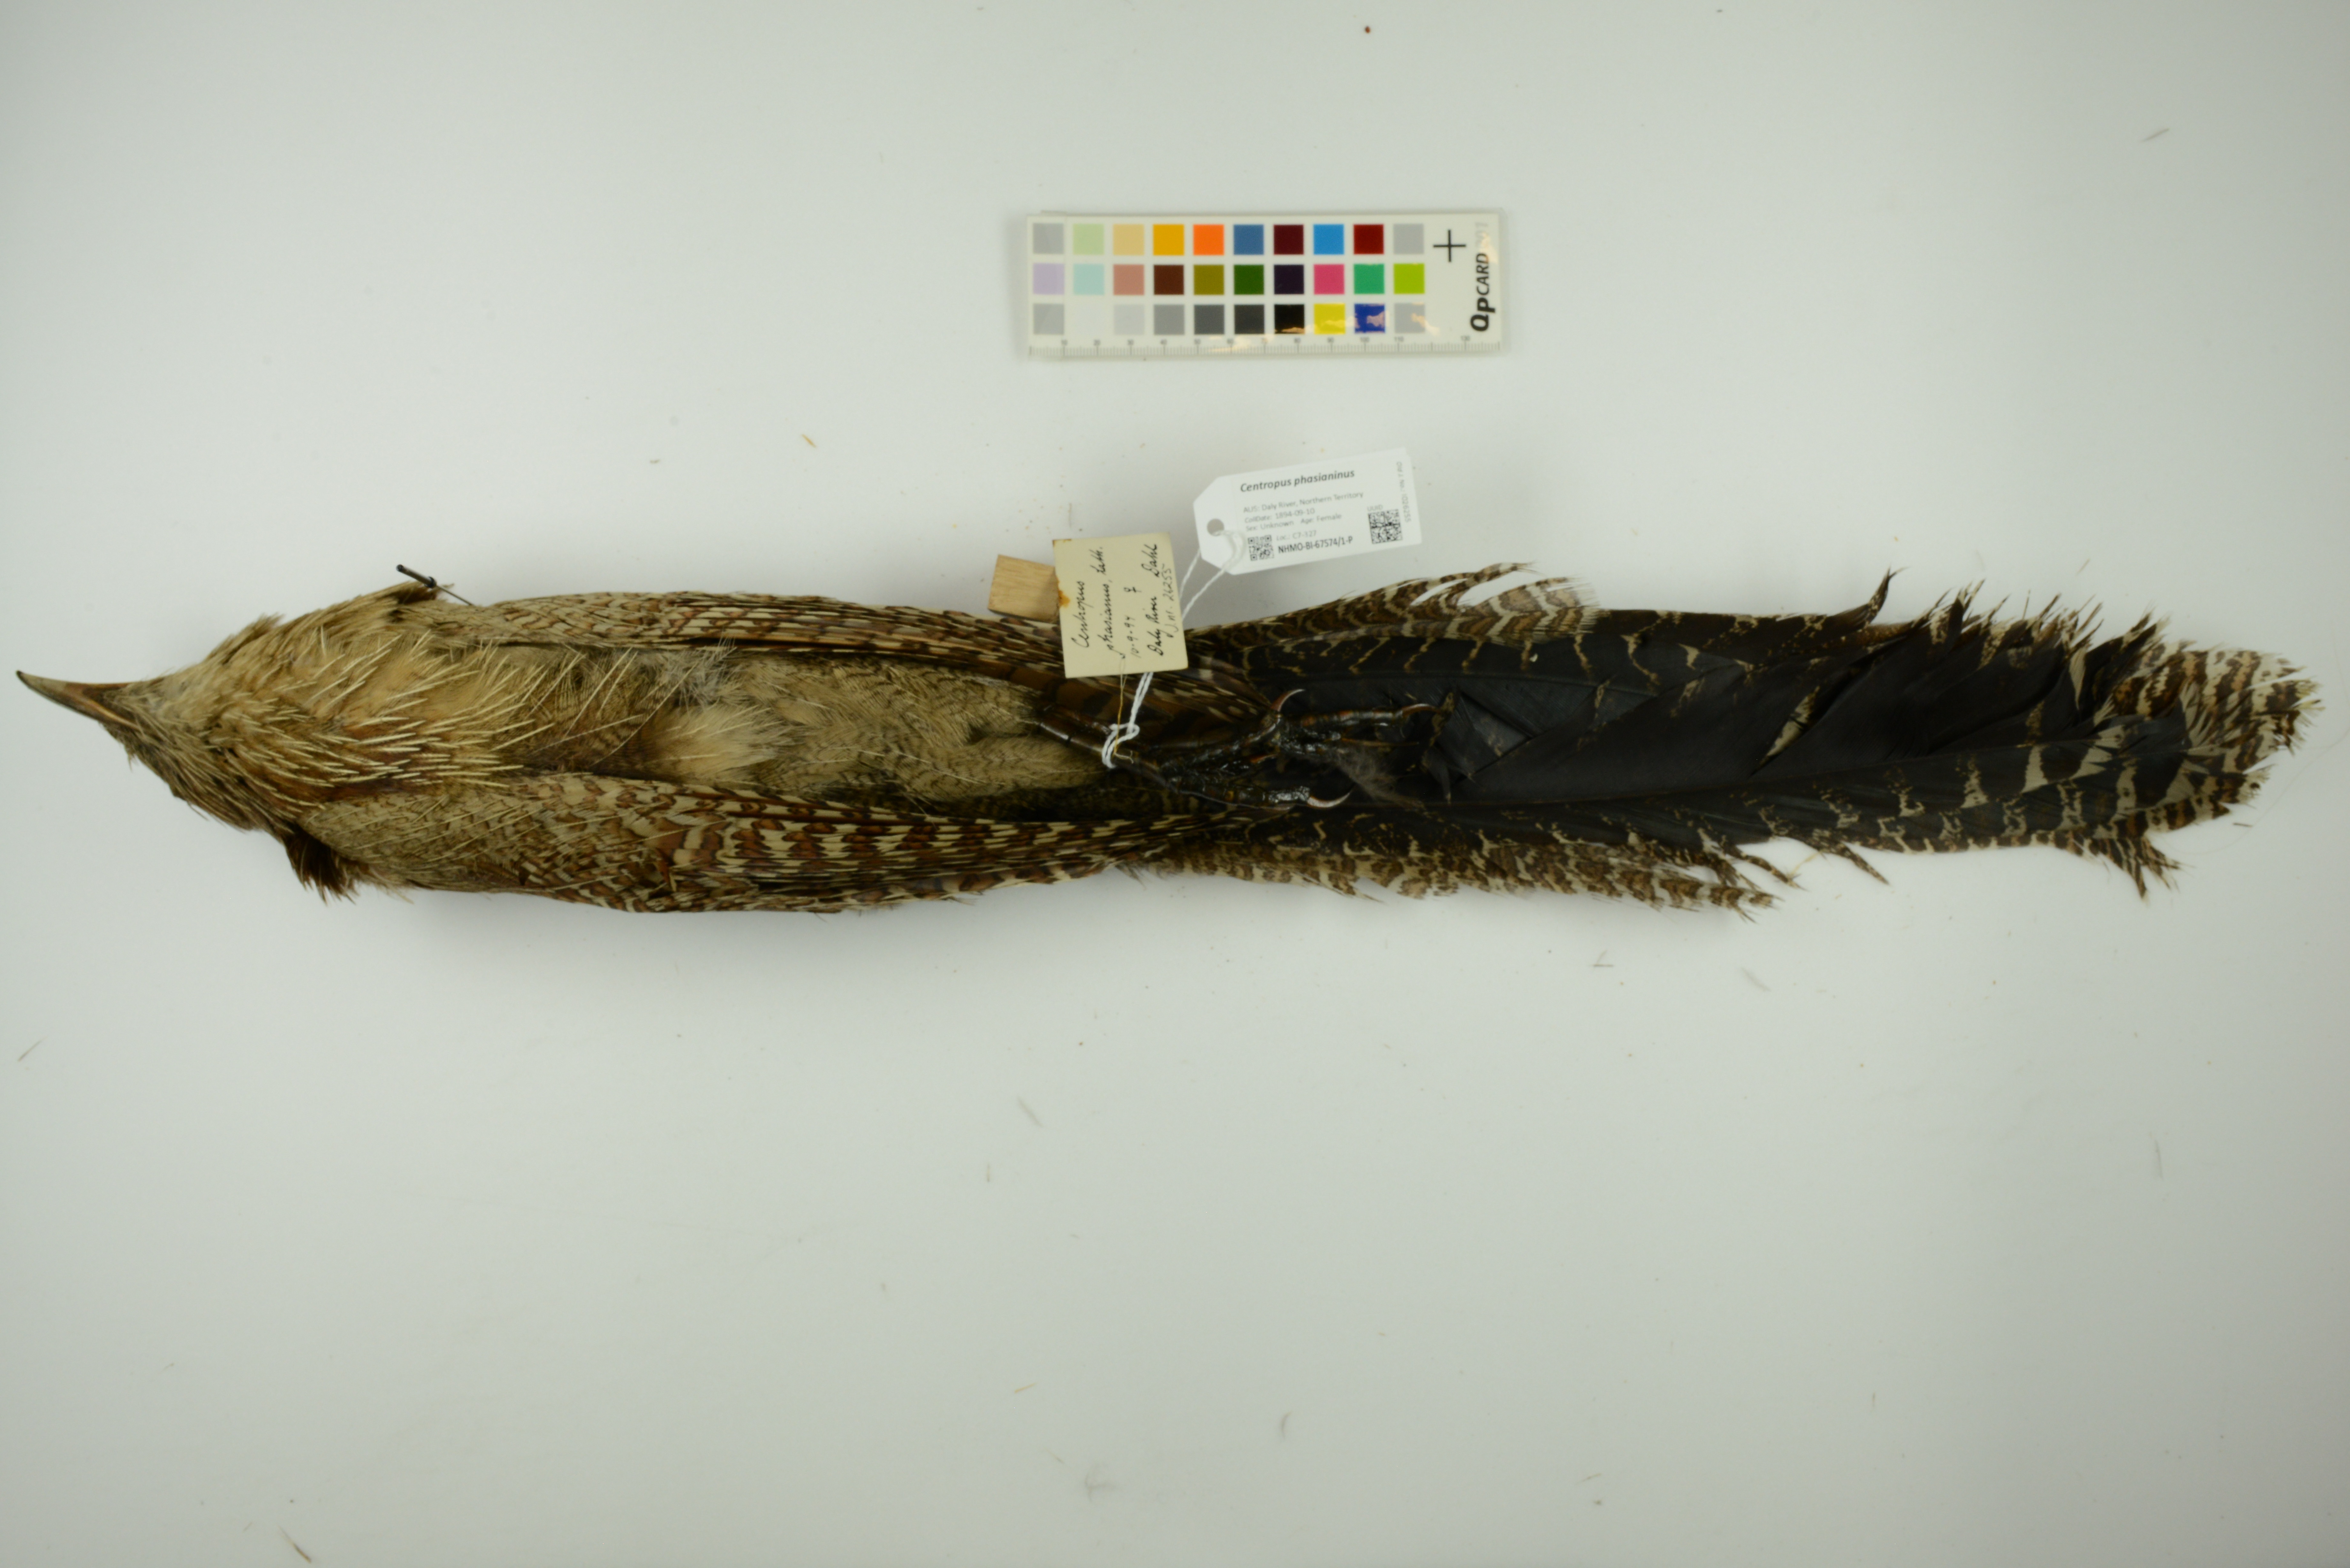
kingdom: Animalia
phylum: Chordata
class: Aves
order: Cuculiformes
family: Cuculidae
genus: Centropus
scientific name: Centropus phasianinus
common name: Pheasant coucal
